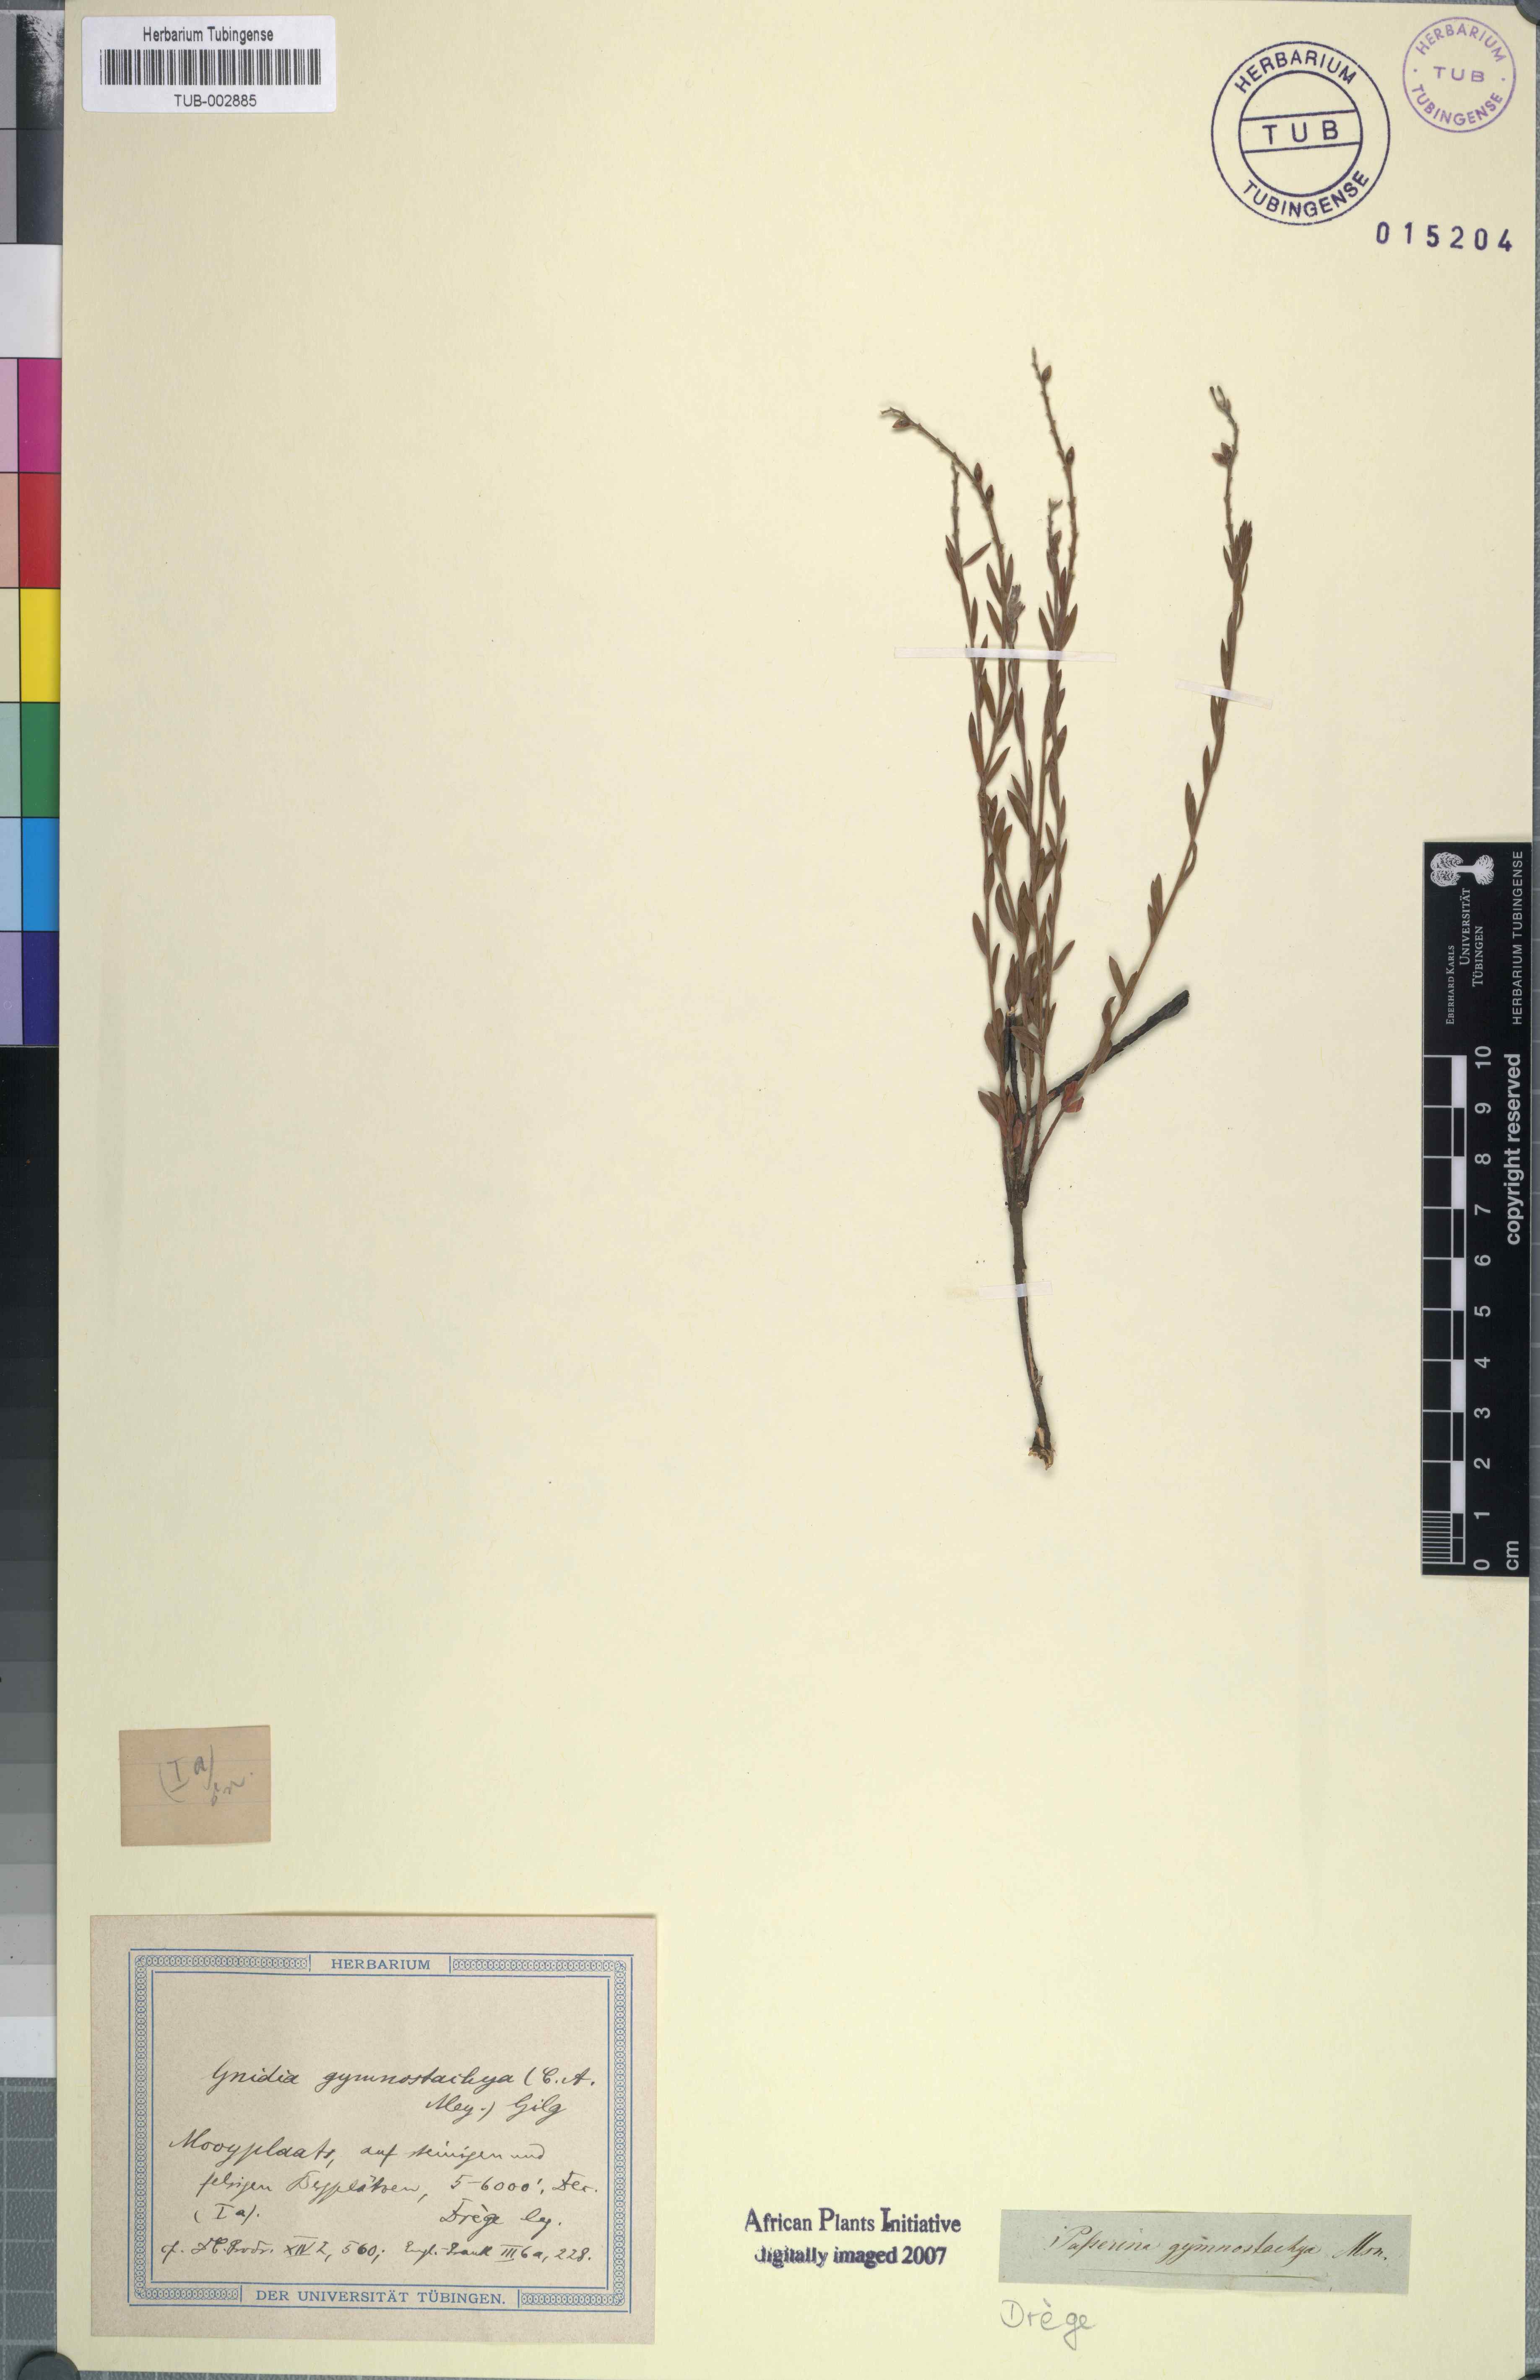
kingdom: Plantae
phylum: Tracheophyta
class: Magnoliopsida
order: Malvales
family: Thymelaeaceae
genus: Gnidia
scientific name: Gnidia gymnostachya
